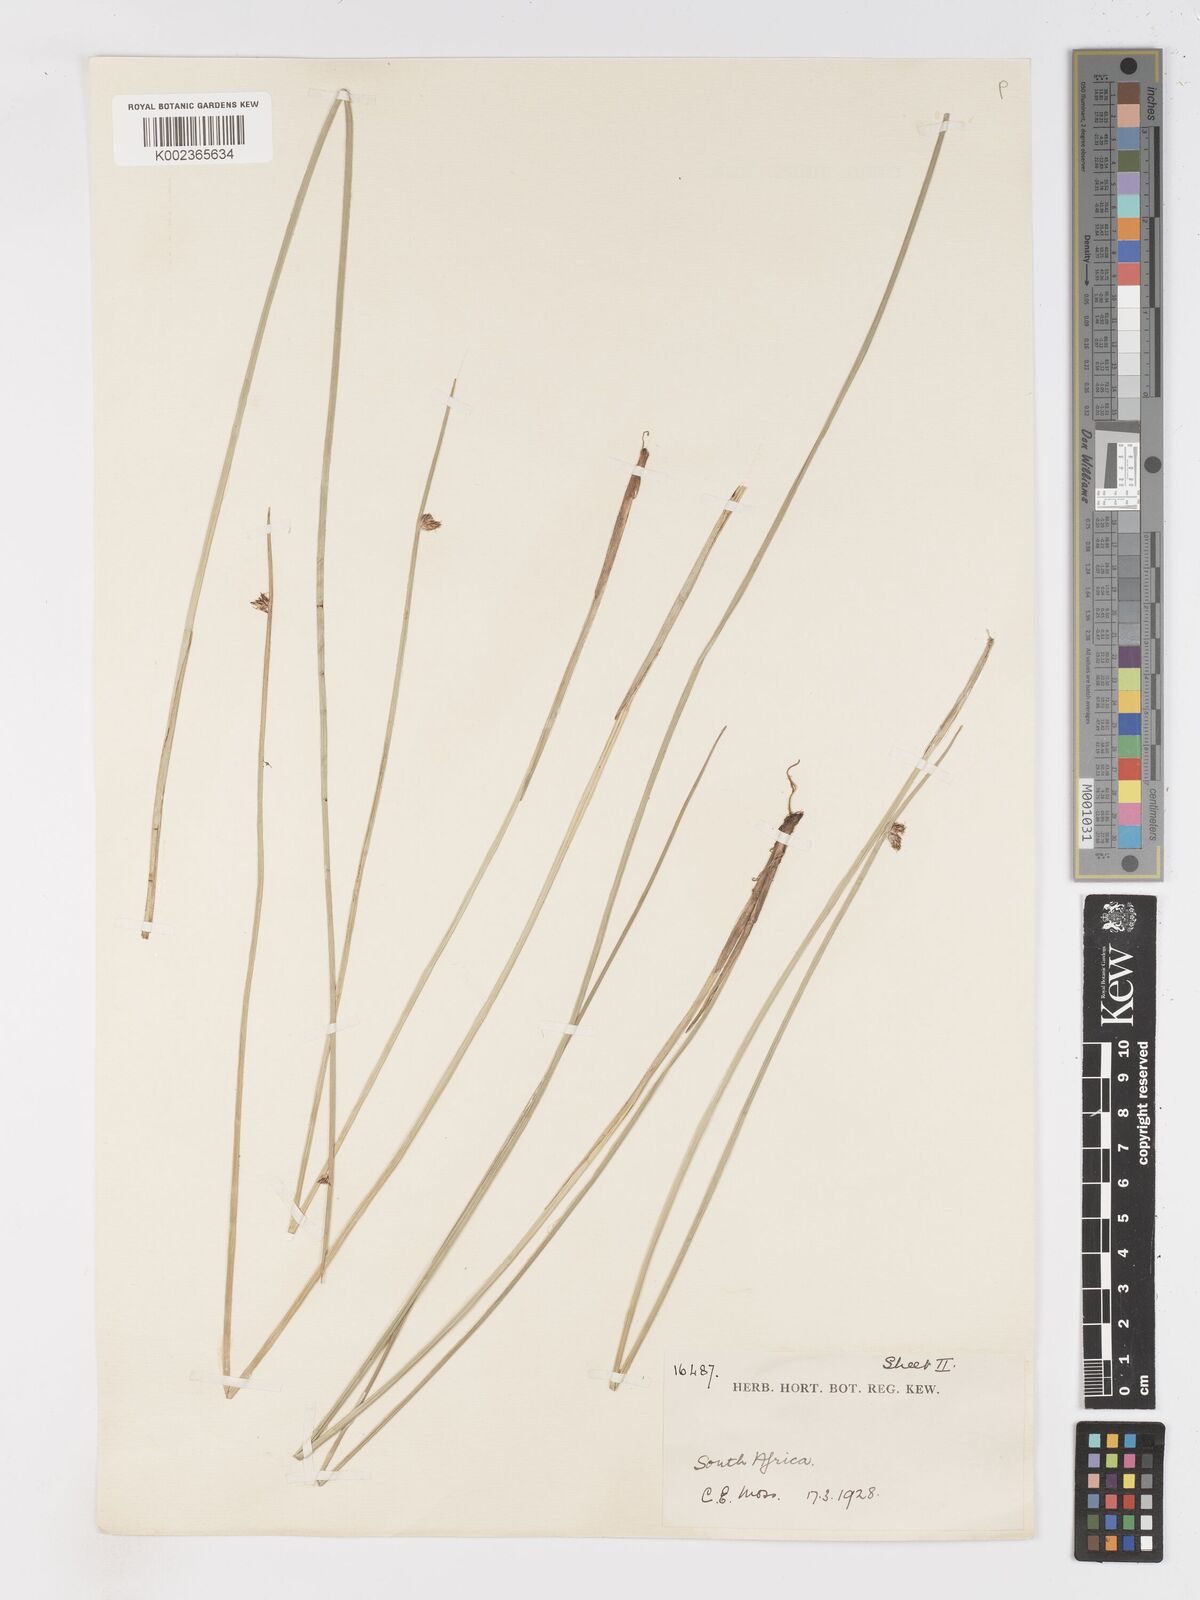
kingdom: Plantae
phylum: Tracheophyta
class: Liliopsida
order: Poales
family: Cyperaceae
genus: Schoenoplectus
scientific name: Schoenoplectus
